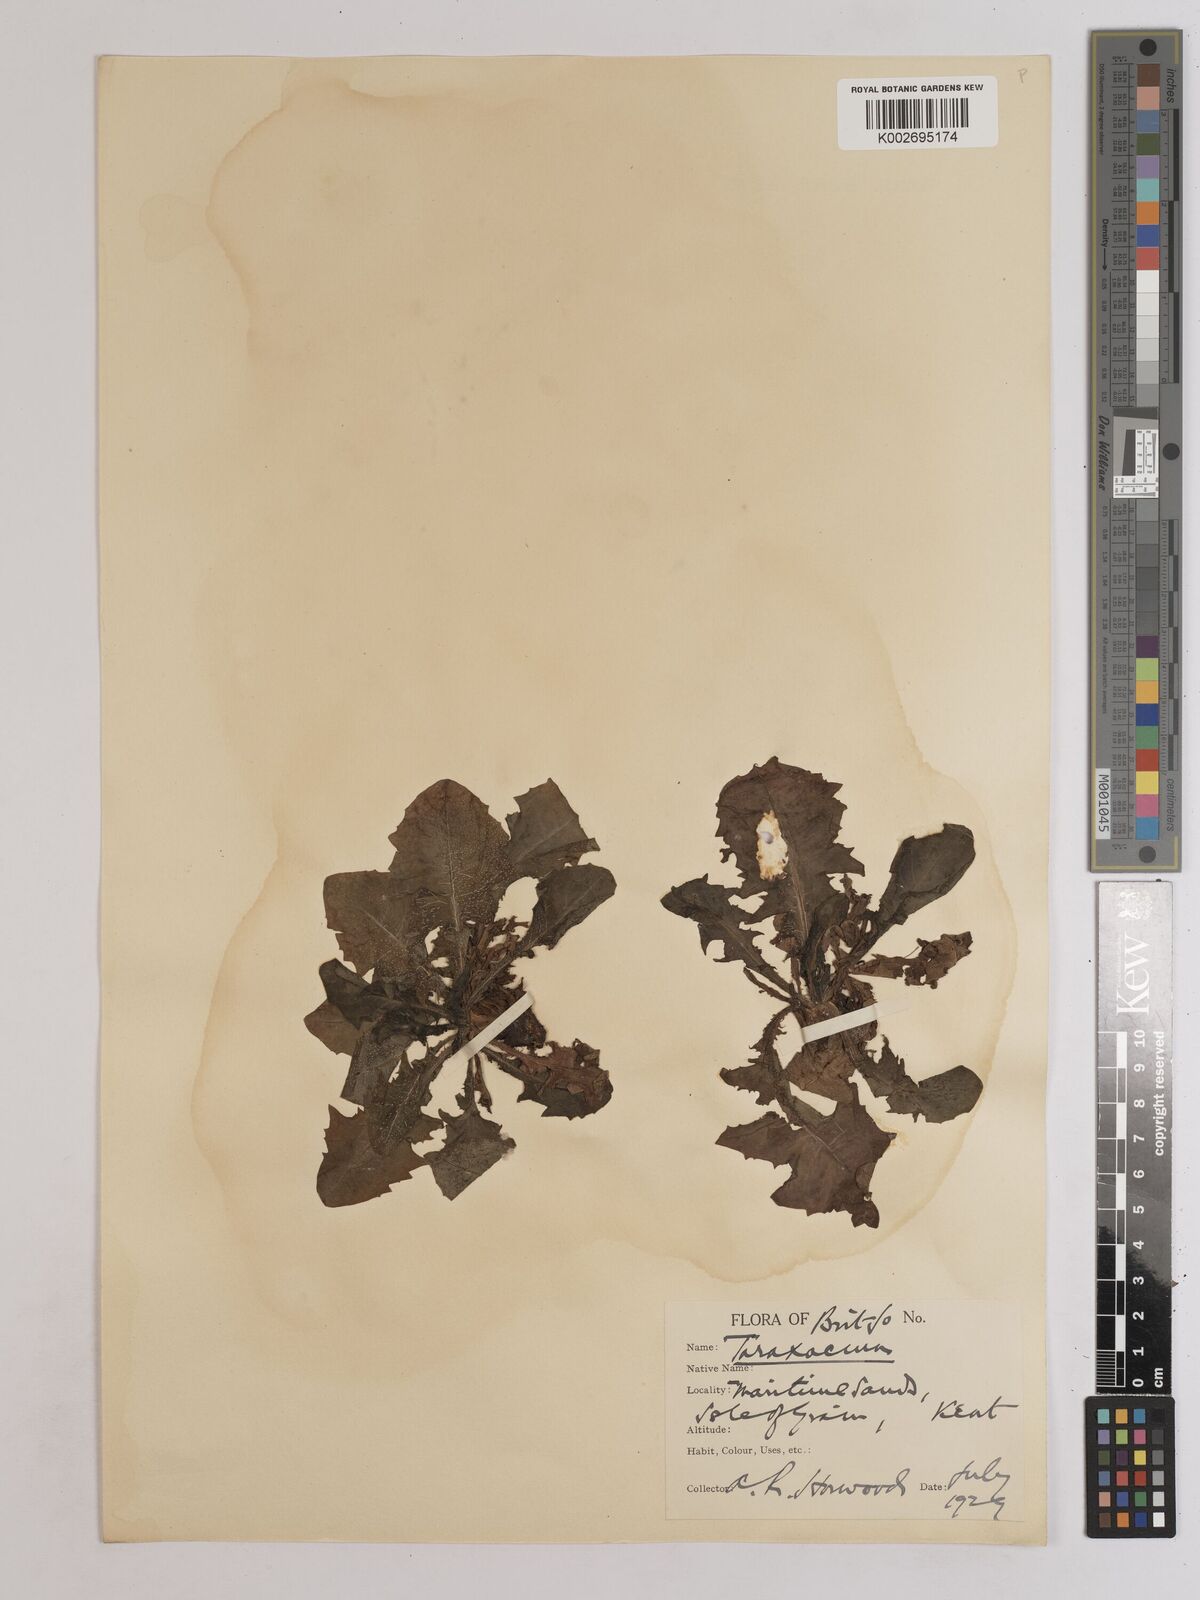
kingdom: Plantae
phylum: Tracheophyta
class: Magnoliopsida
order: Asterales
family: Asteraceae
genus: Taraxacum
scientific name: Taraxacum officinale
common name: Common dandelion
